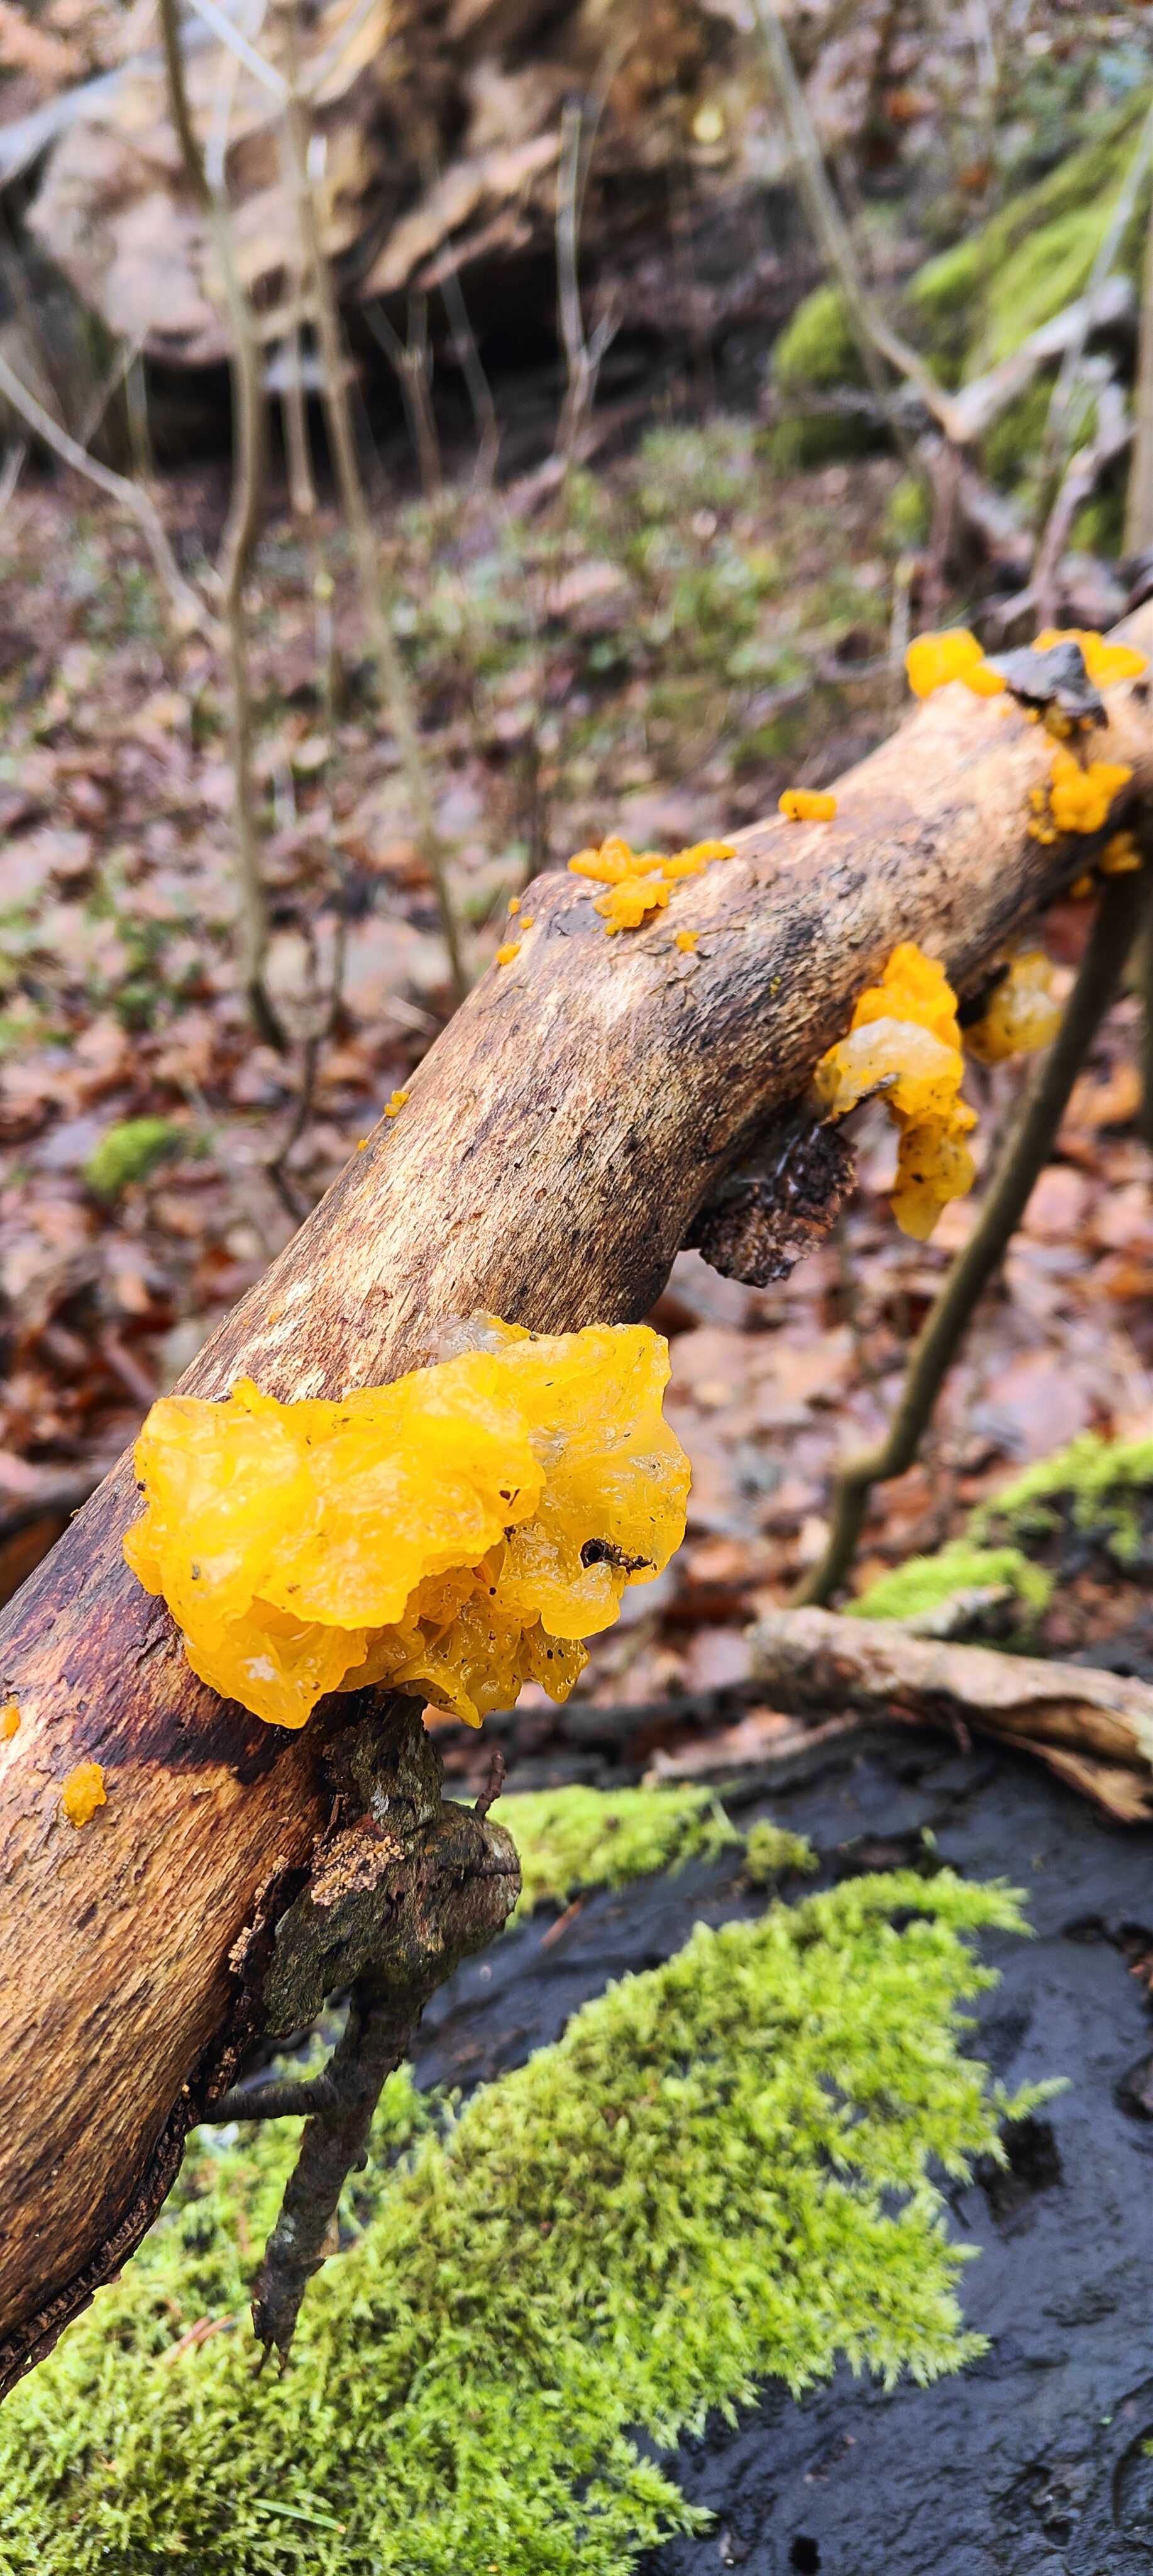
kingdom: Fungi
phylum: Basidiomycota
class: Tremellomycetes
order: Tremellales
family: Tremellaceae
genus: Tremella
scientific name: Tremella mesenterica
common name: gul bævresvamp
